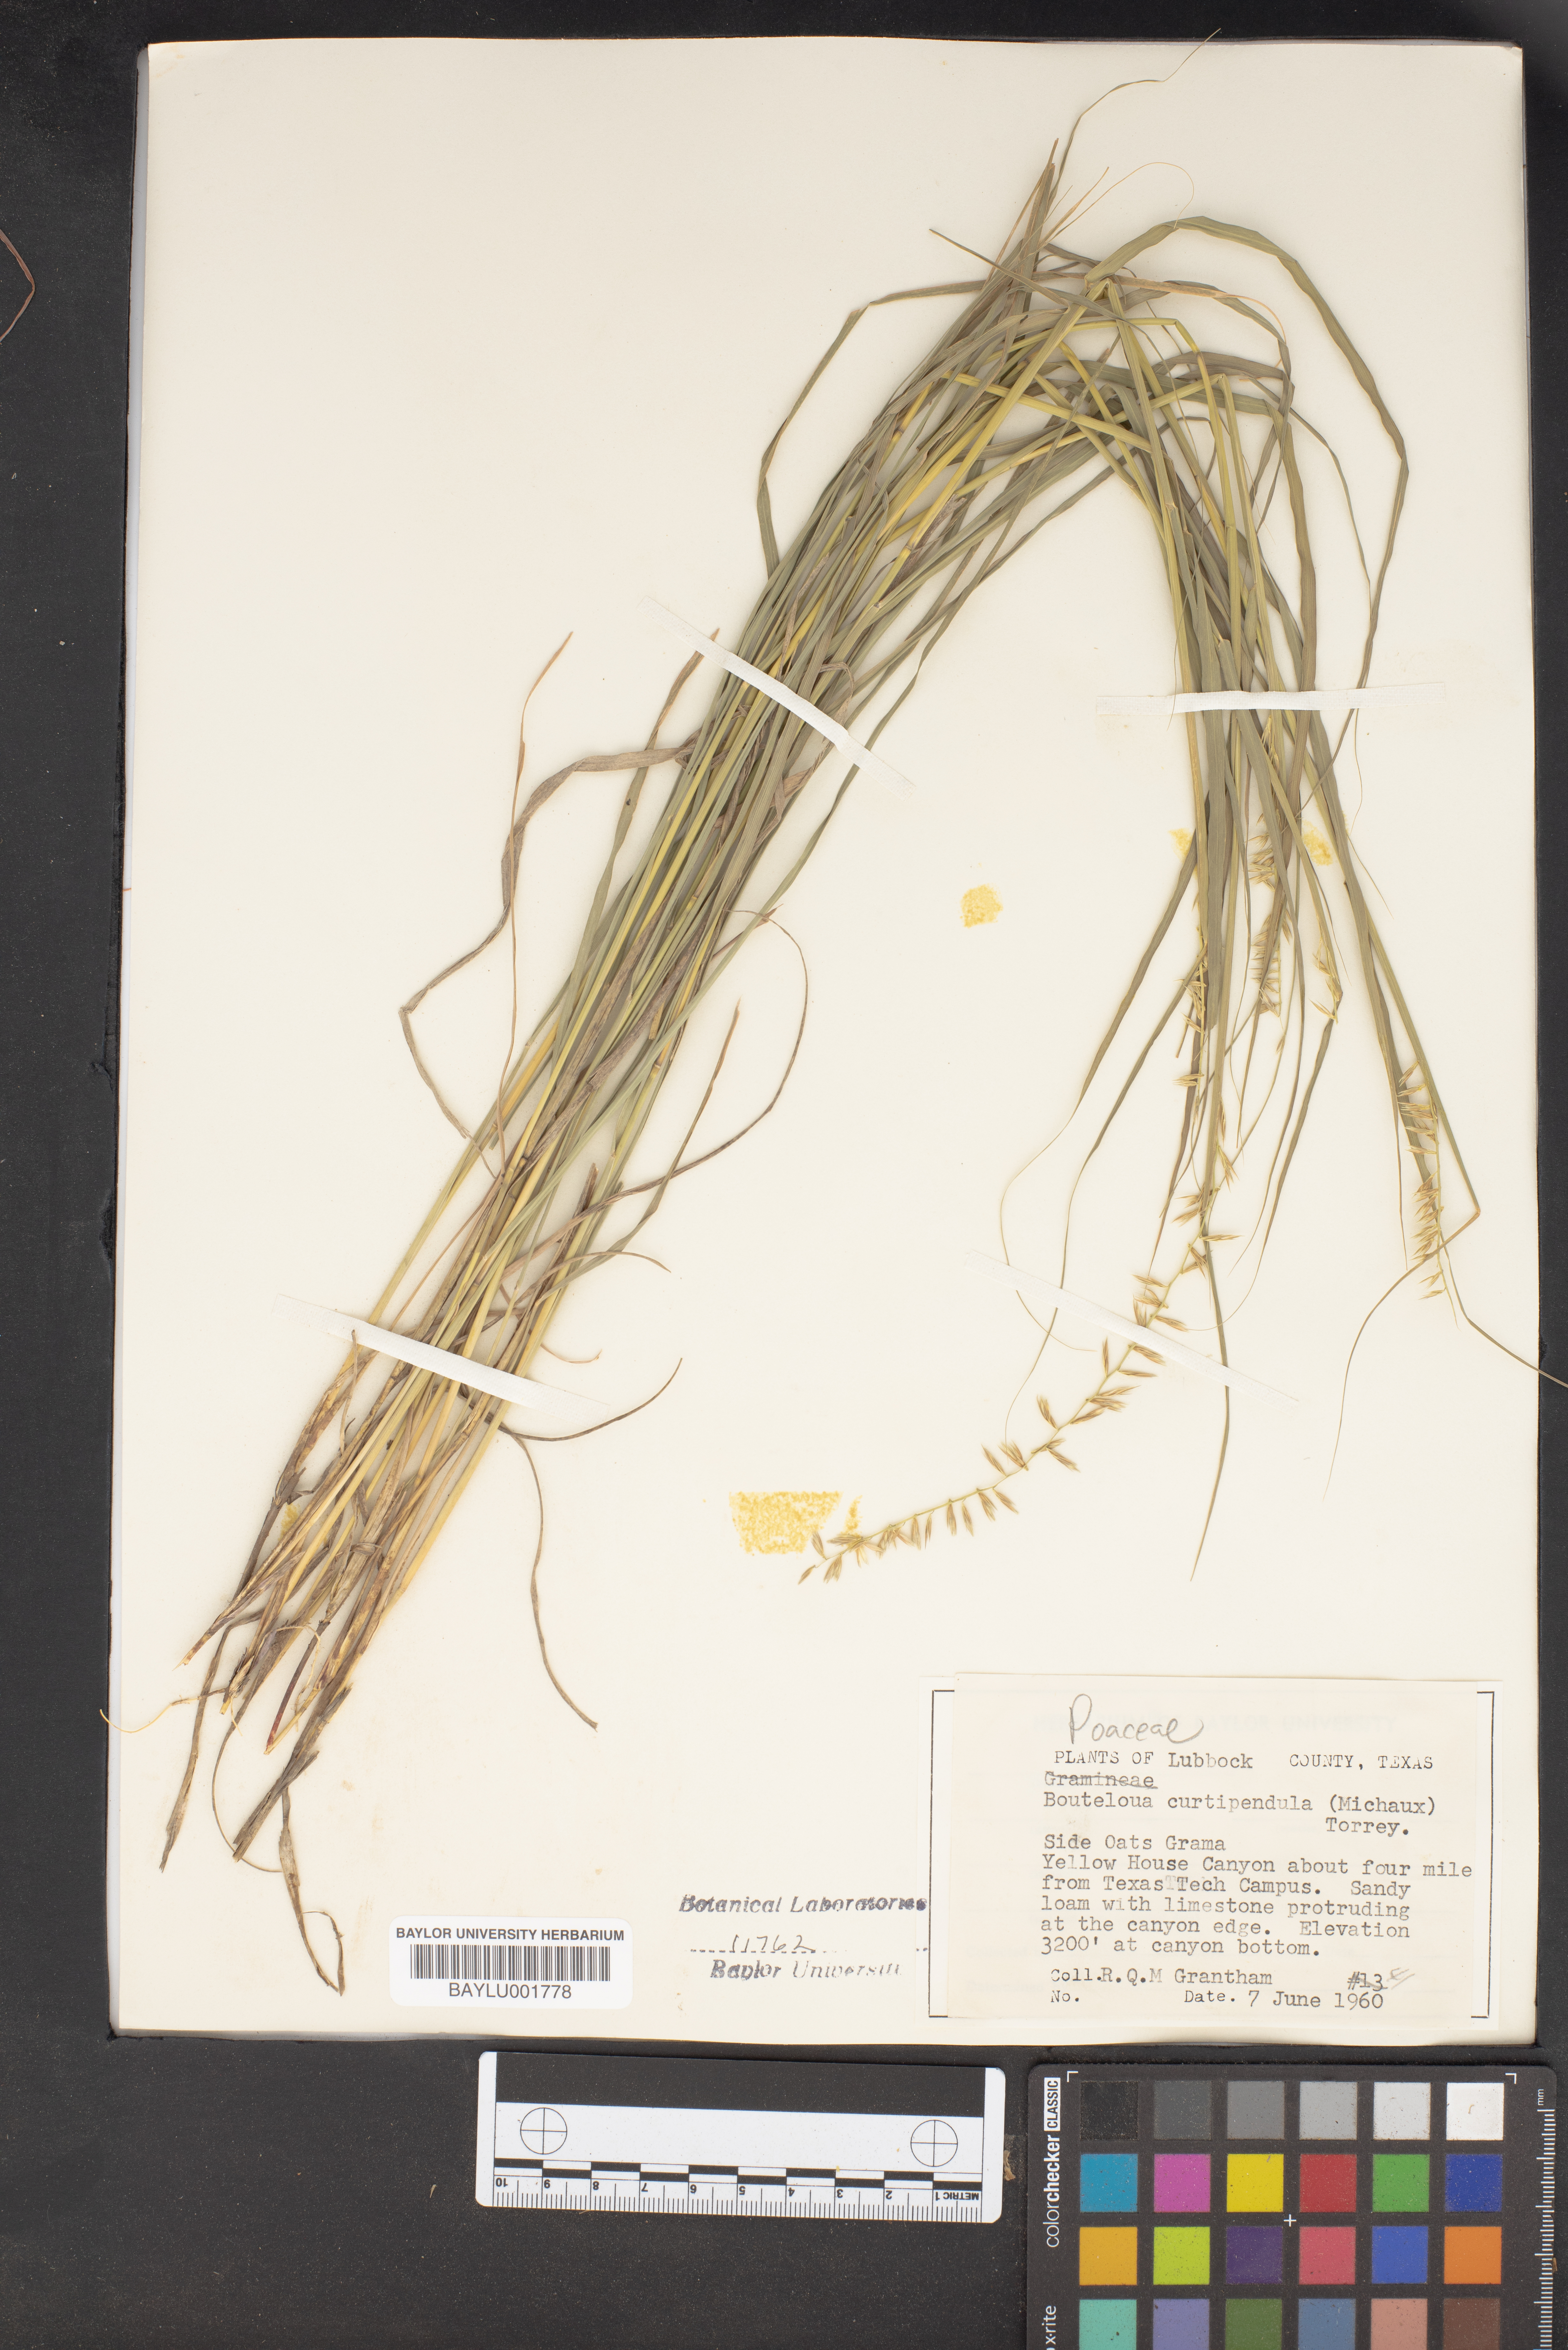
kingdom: Plantae
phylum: Tracheophyta
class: Liliopsida
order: Poales
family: Poaceae
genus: Bouteloua
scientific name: Bouteloua curtipendula
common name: Side-oats grama
